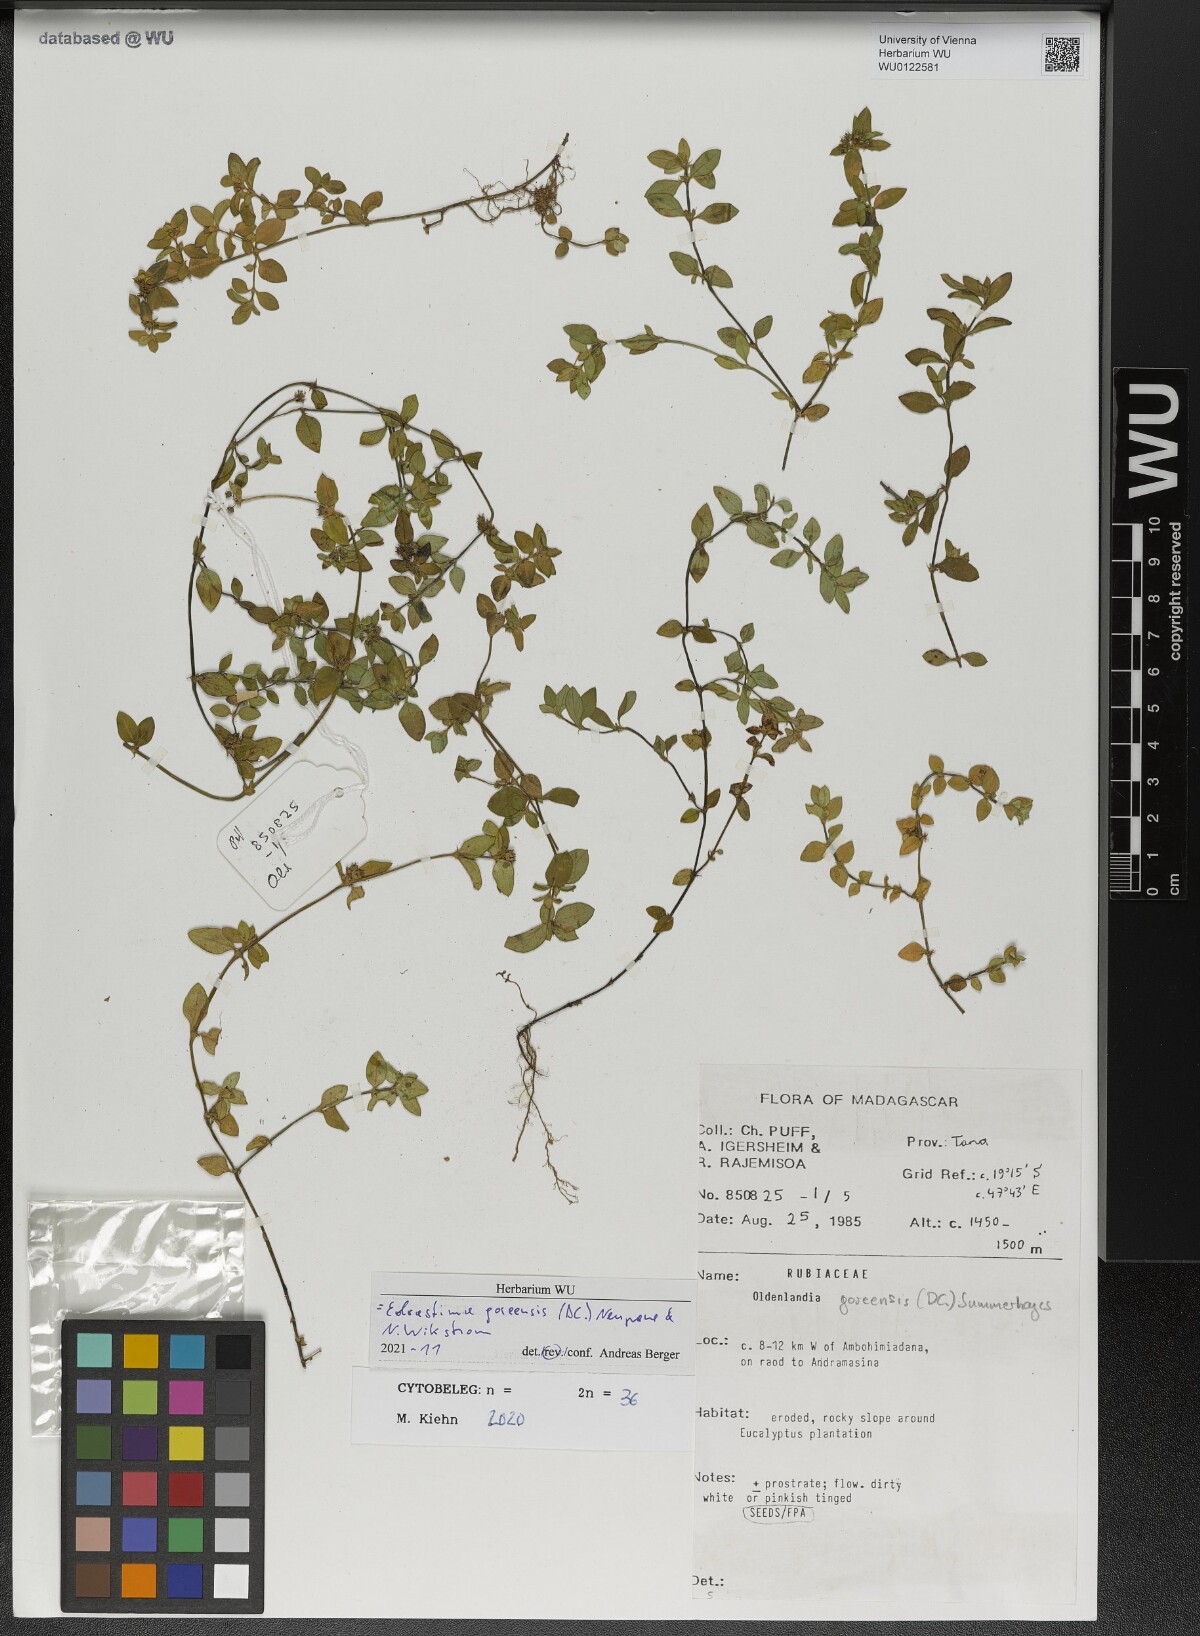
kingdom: Plantae
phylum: Tracheophyta
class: Magnoliopsida
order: Gentianales
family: Rubiaceae
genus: Edrastima
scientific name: Edrastima goreensis
